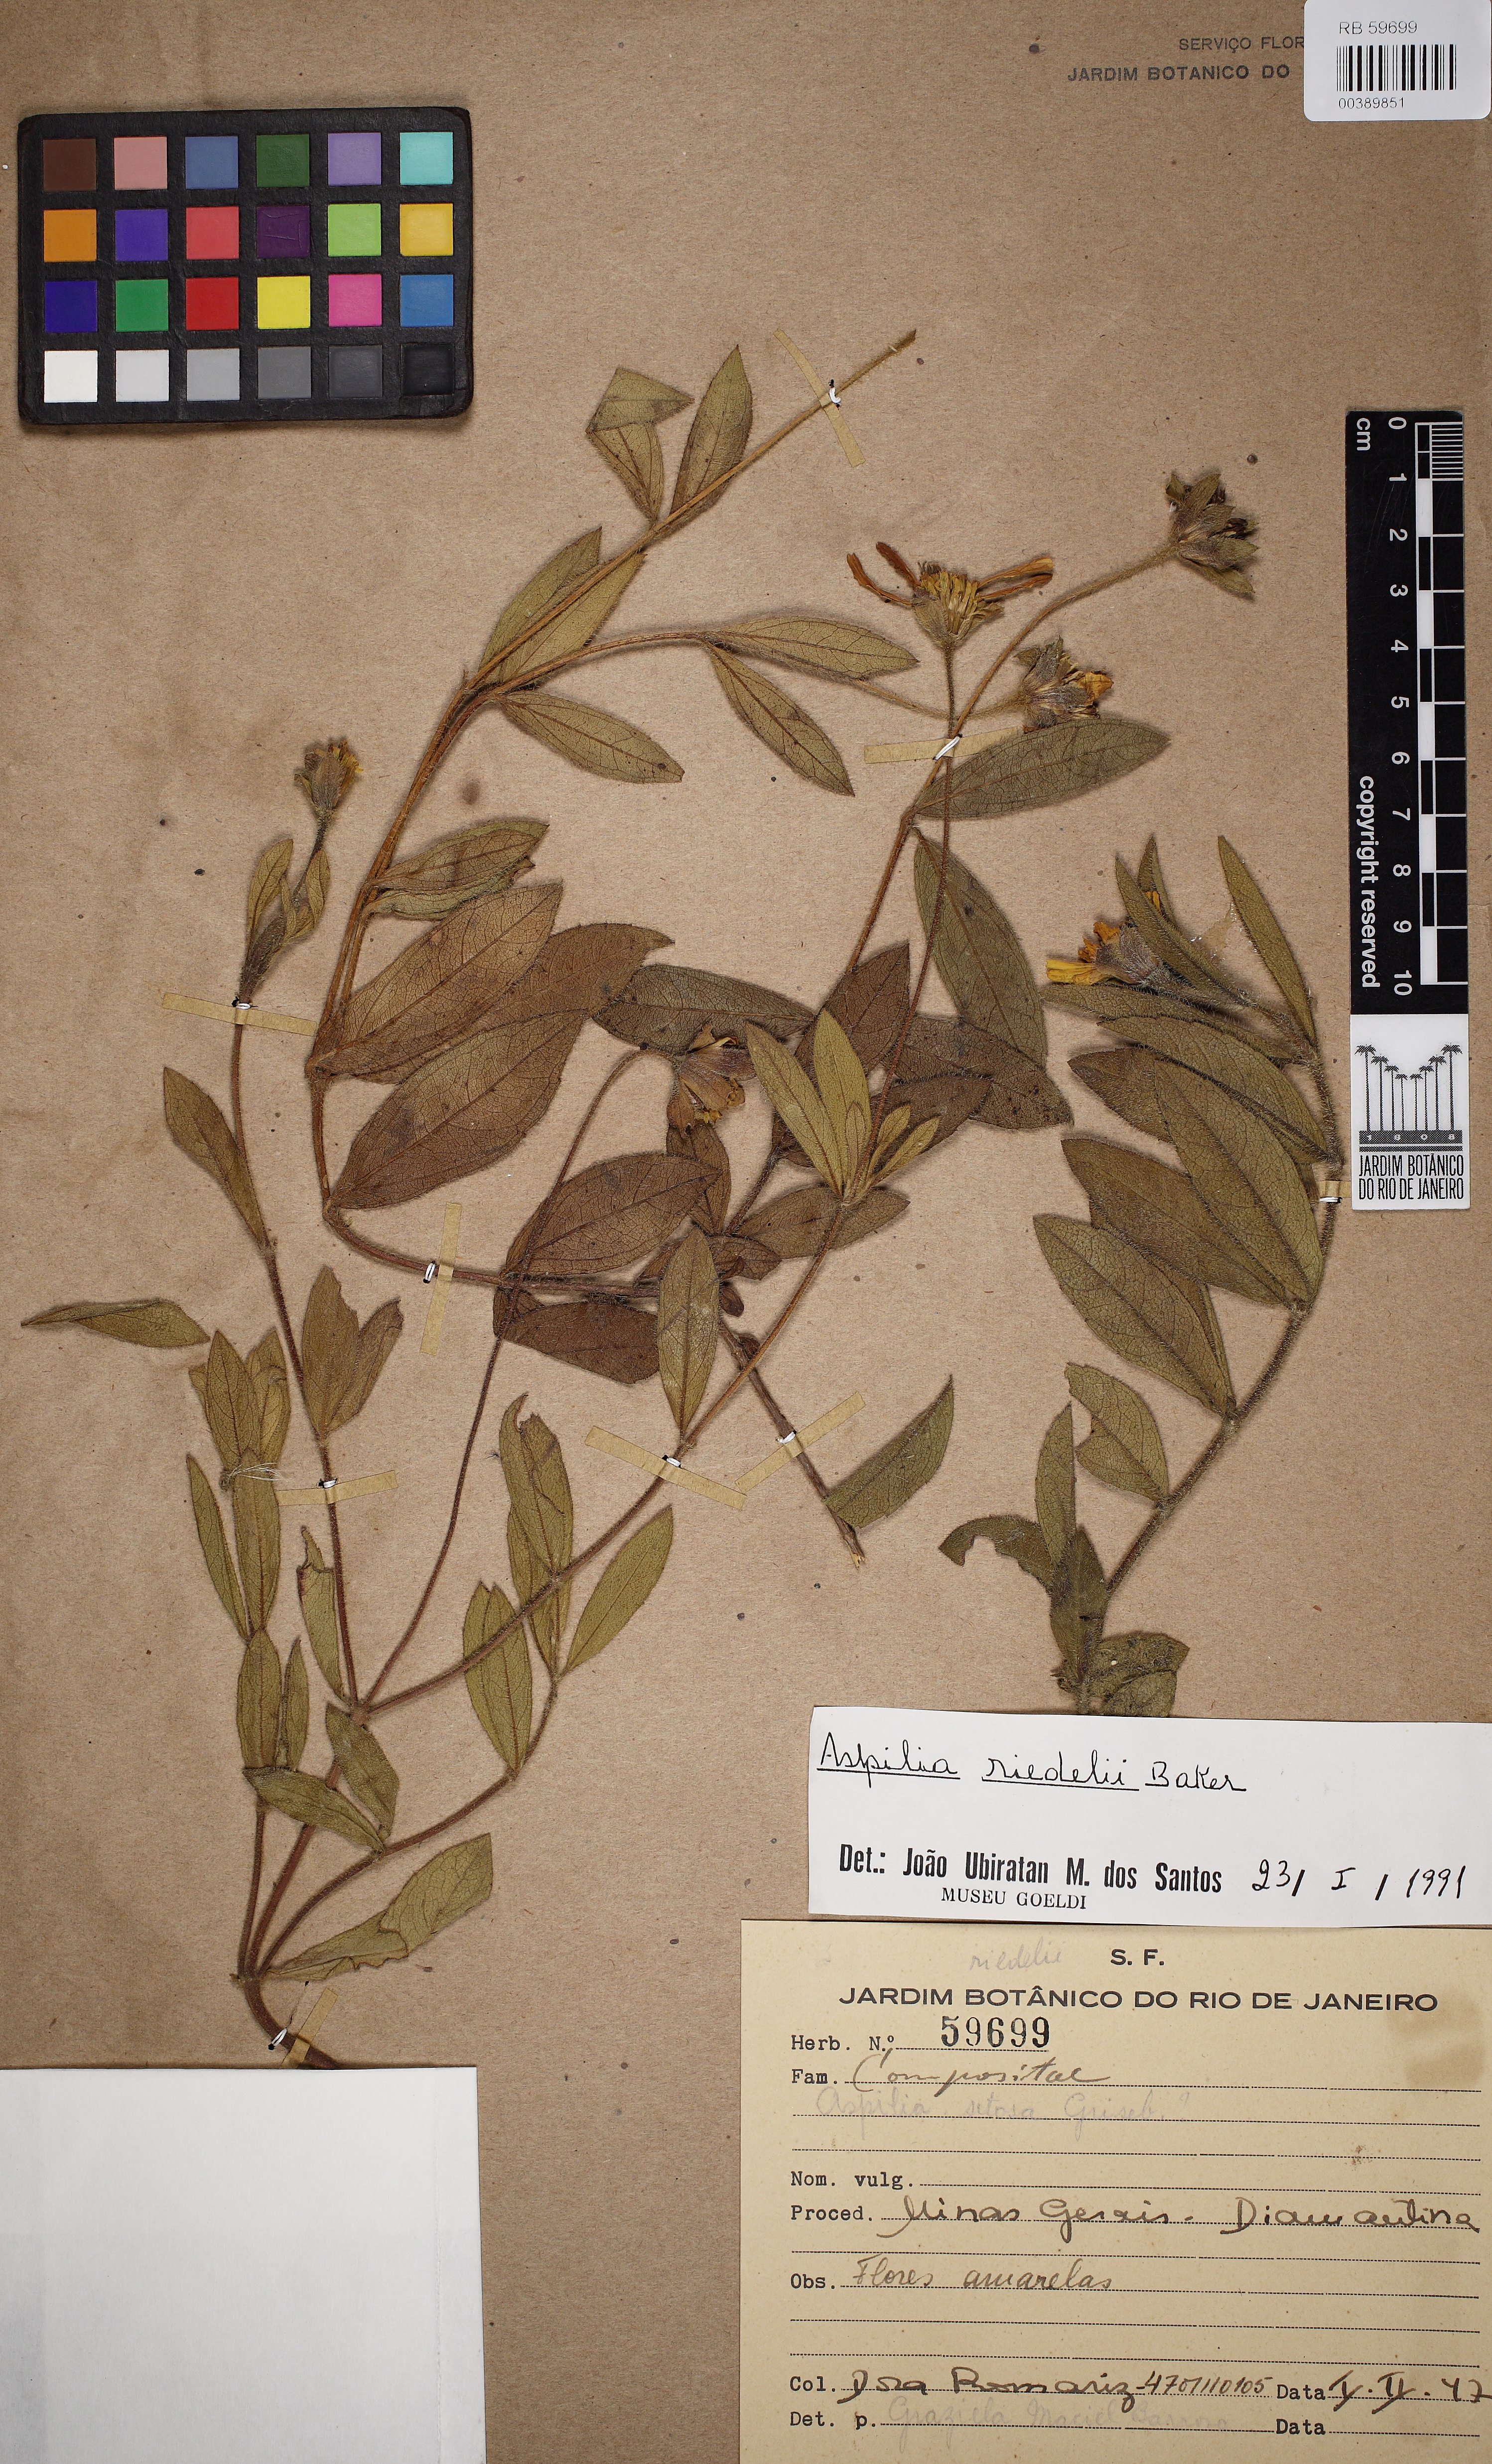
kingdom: Plantae
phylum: Tracheophyta
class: Magnoliopsida
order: Asterales
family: Asteraceae
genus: Wedelia
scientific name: Wedelia riedellii
